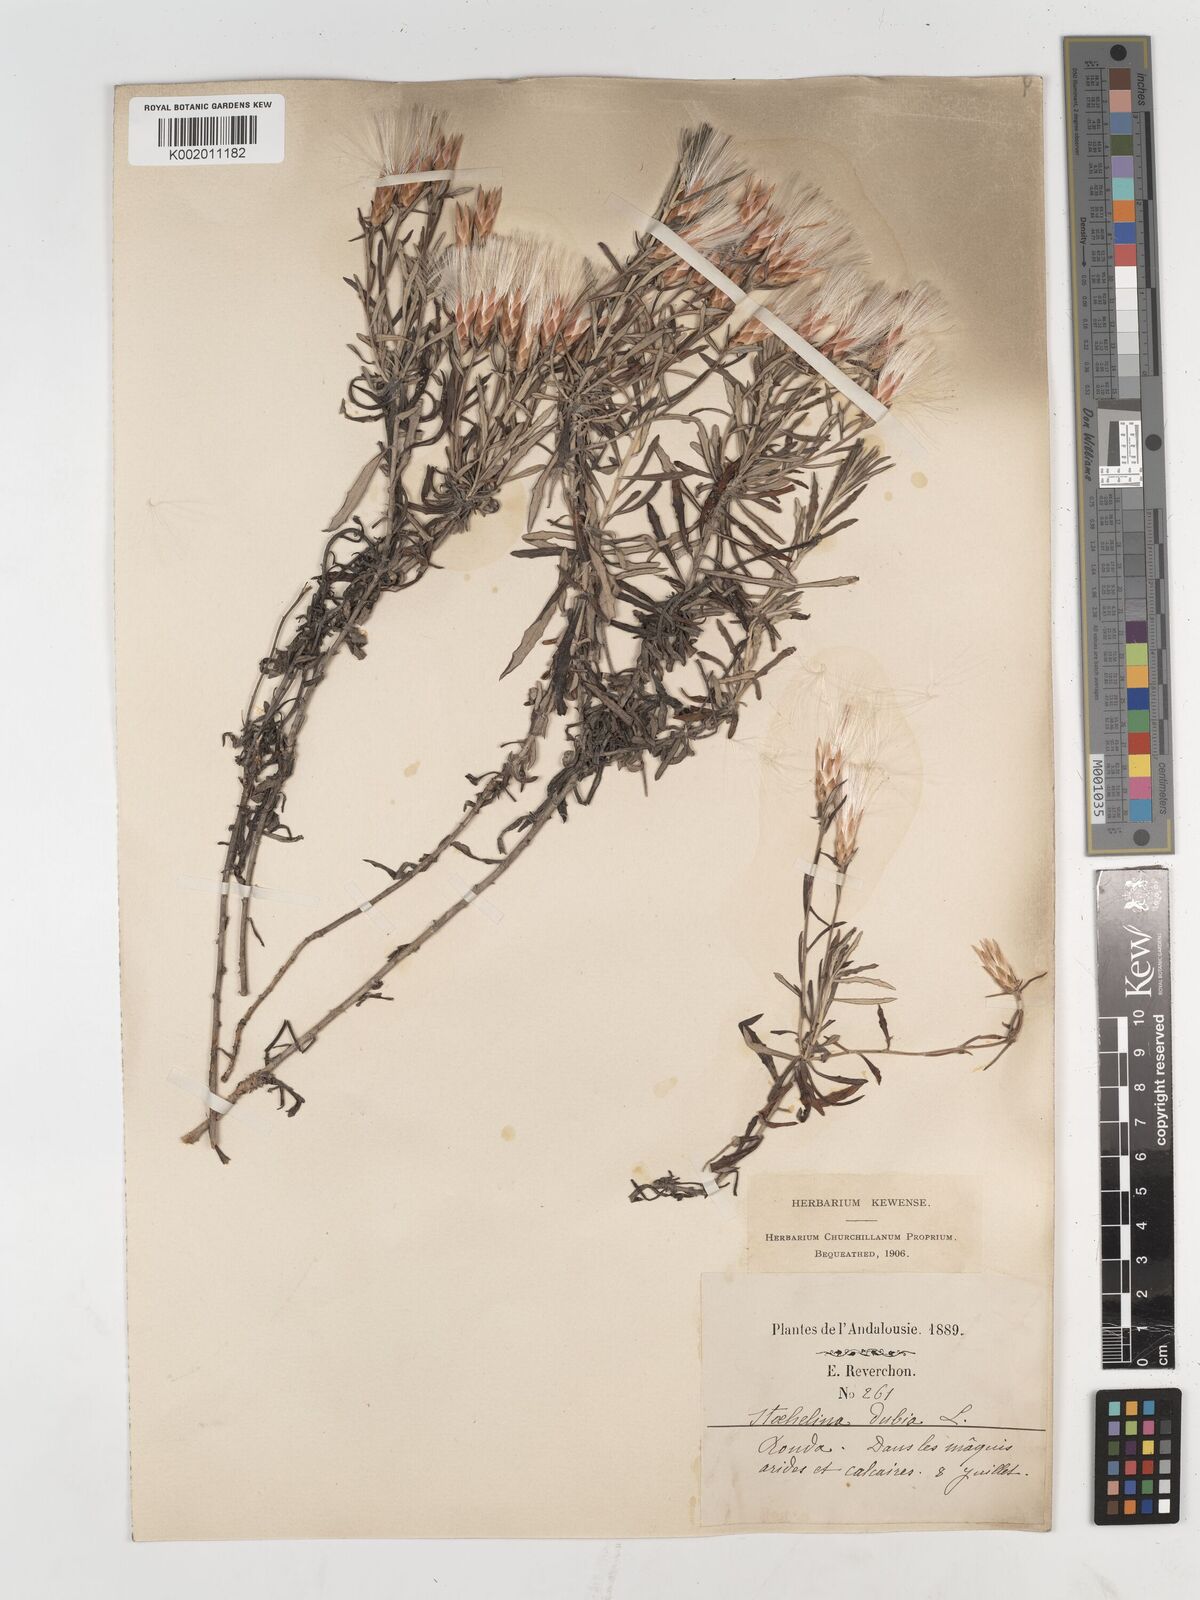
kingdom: Plantae
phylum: Tracheophyta
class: Magnoliopsida
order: Asterales
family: Asteraceae
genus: Staehelina
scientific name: Staehelina dubia
